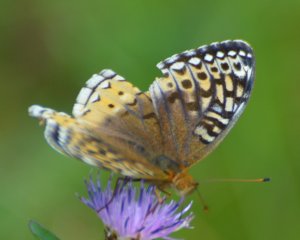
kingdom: Animalia
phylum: Arthropoda
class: Insecta
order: Lepidoptera
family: Nymphalidae
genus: Speyeria
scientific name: Speyeria cybele
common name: Great Spangled Fritillary
